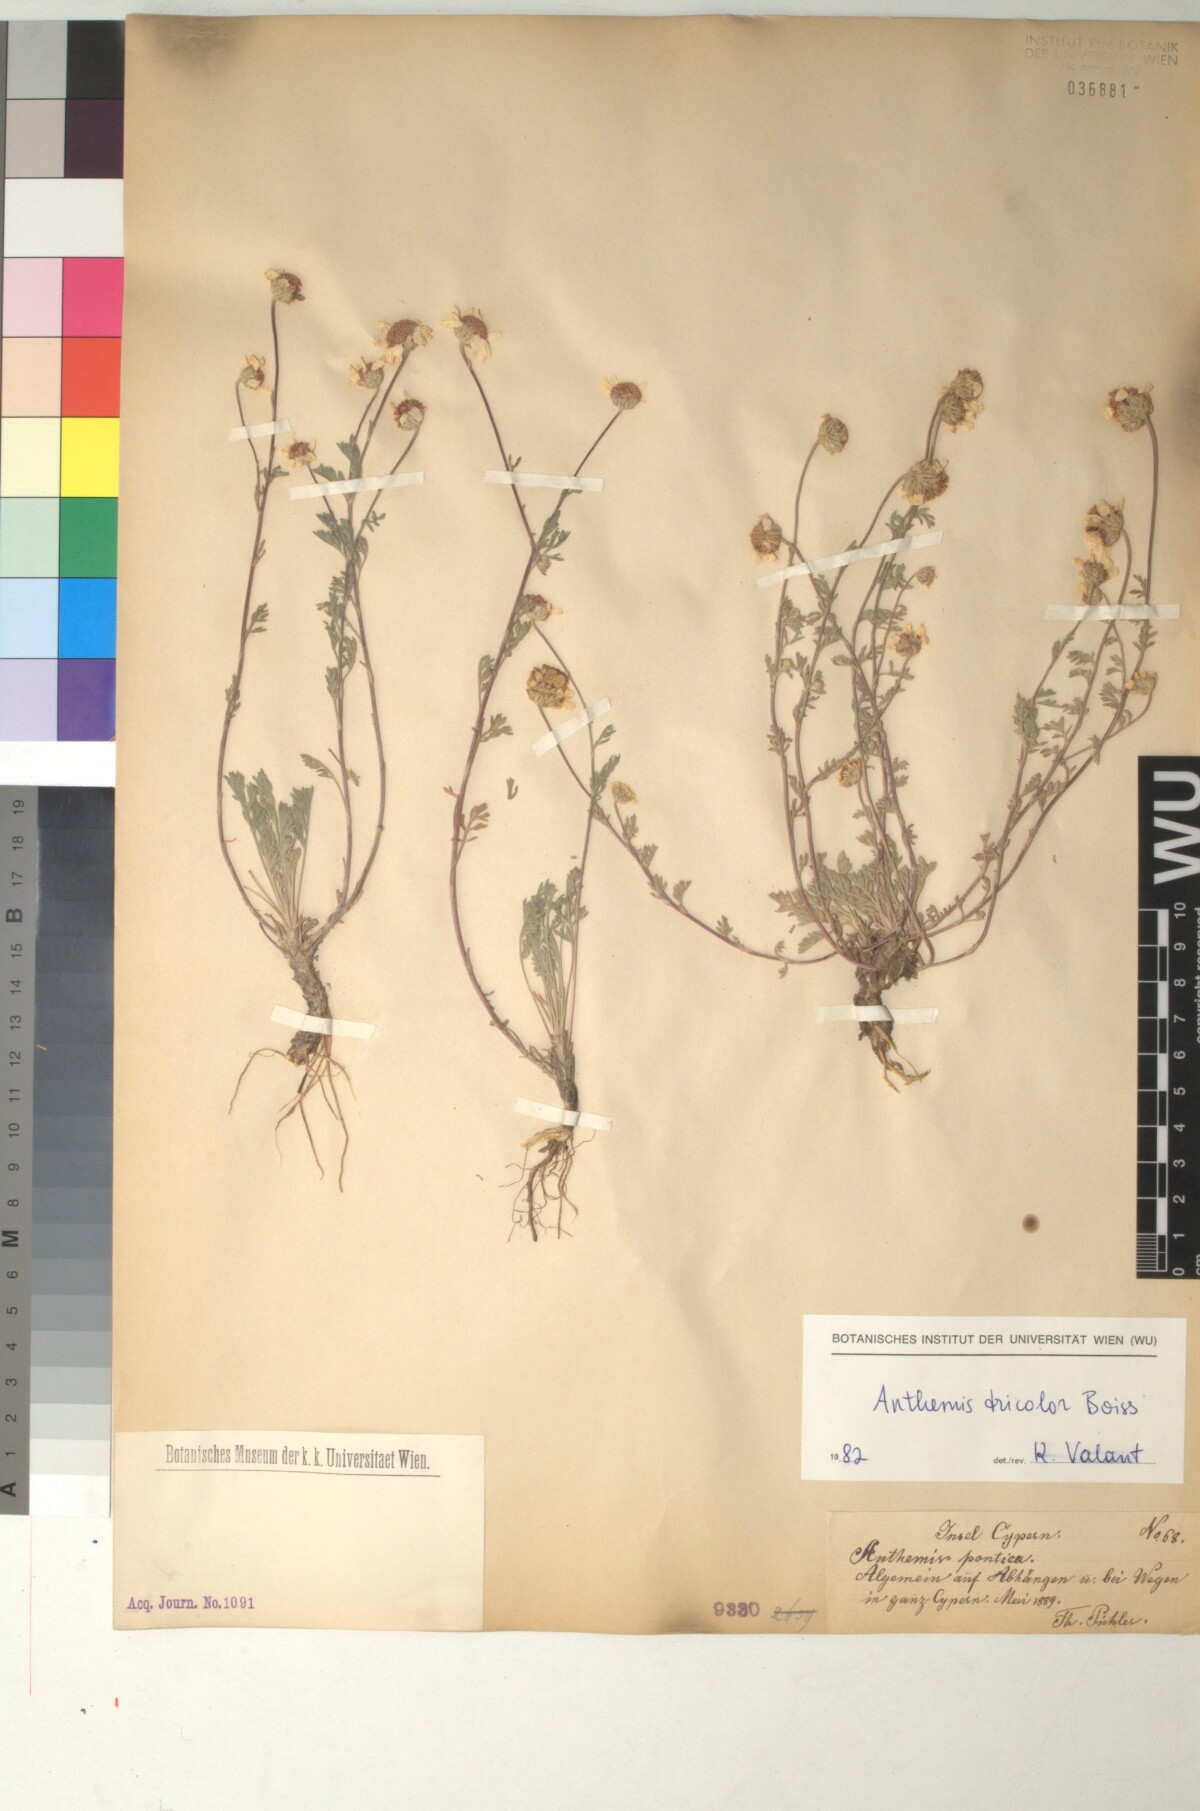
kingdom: Plantae
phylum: Tracheophyta
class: Magnoliopsida
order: Asterales
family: Asteraceae
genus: Anthemis
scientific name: Anthemis tricolor
